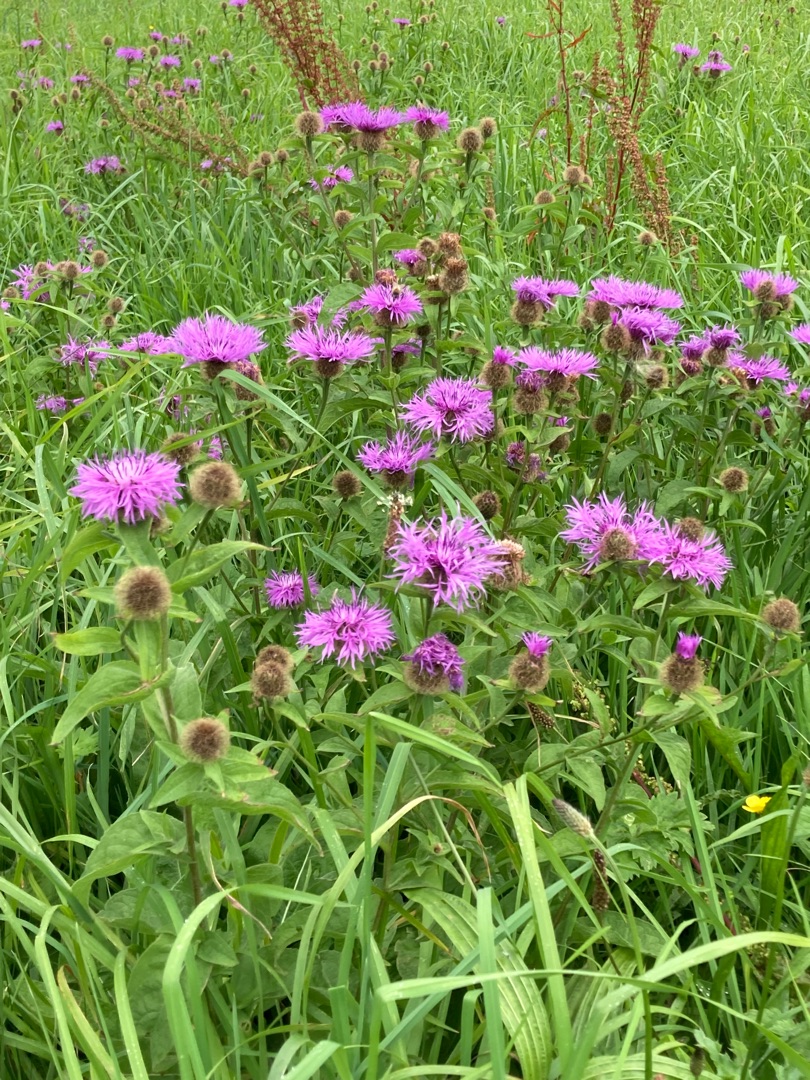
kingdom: Plantae
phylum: Tracheophyta
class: Magnoliopsida
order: Asterales
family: Asteraceae
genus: Centaurea
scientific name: Centaurea pseudophrygia
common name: Fjer-knopurt
